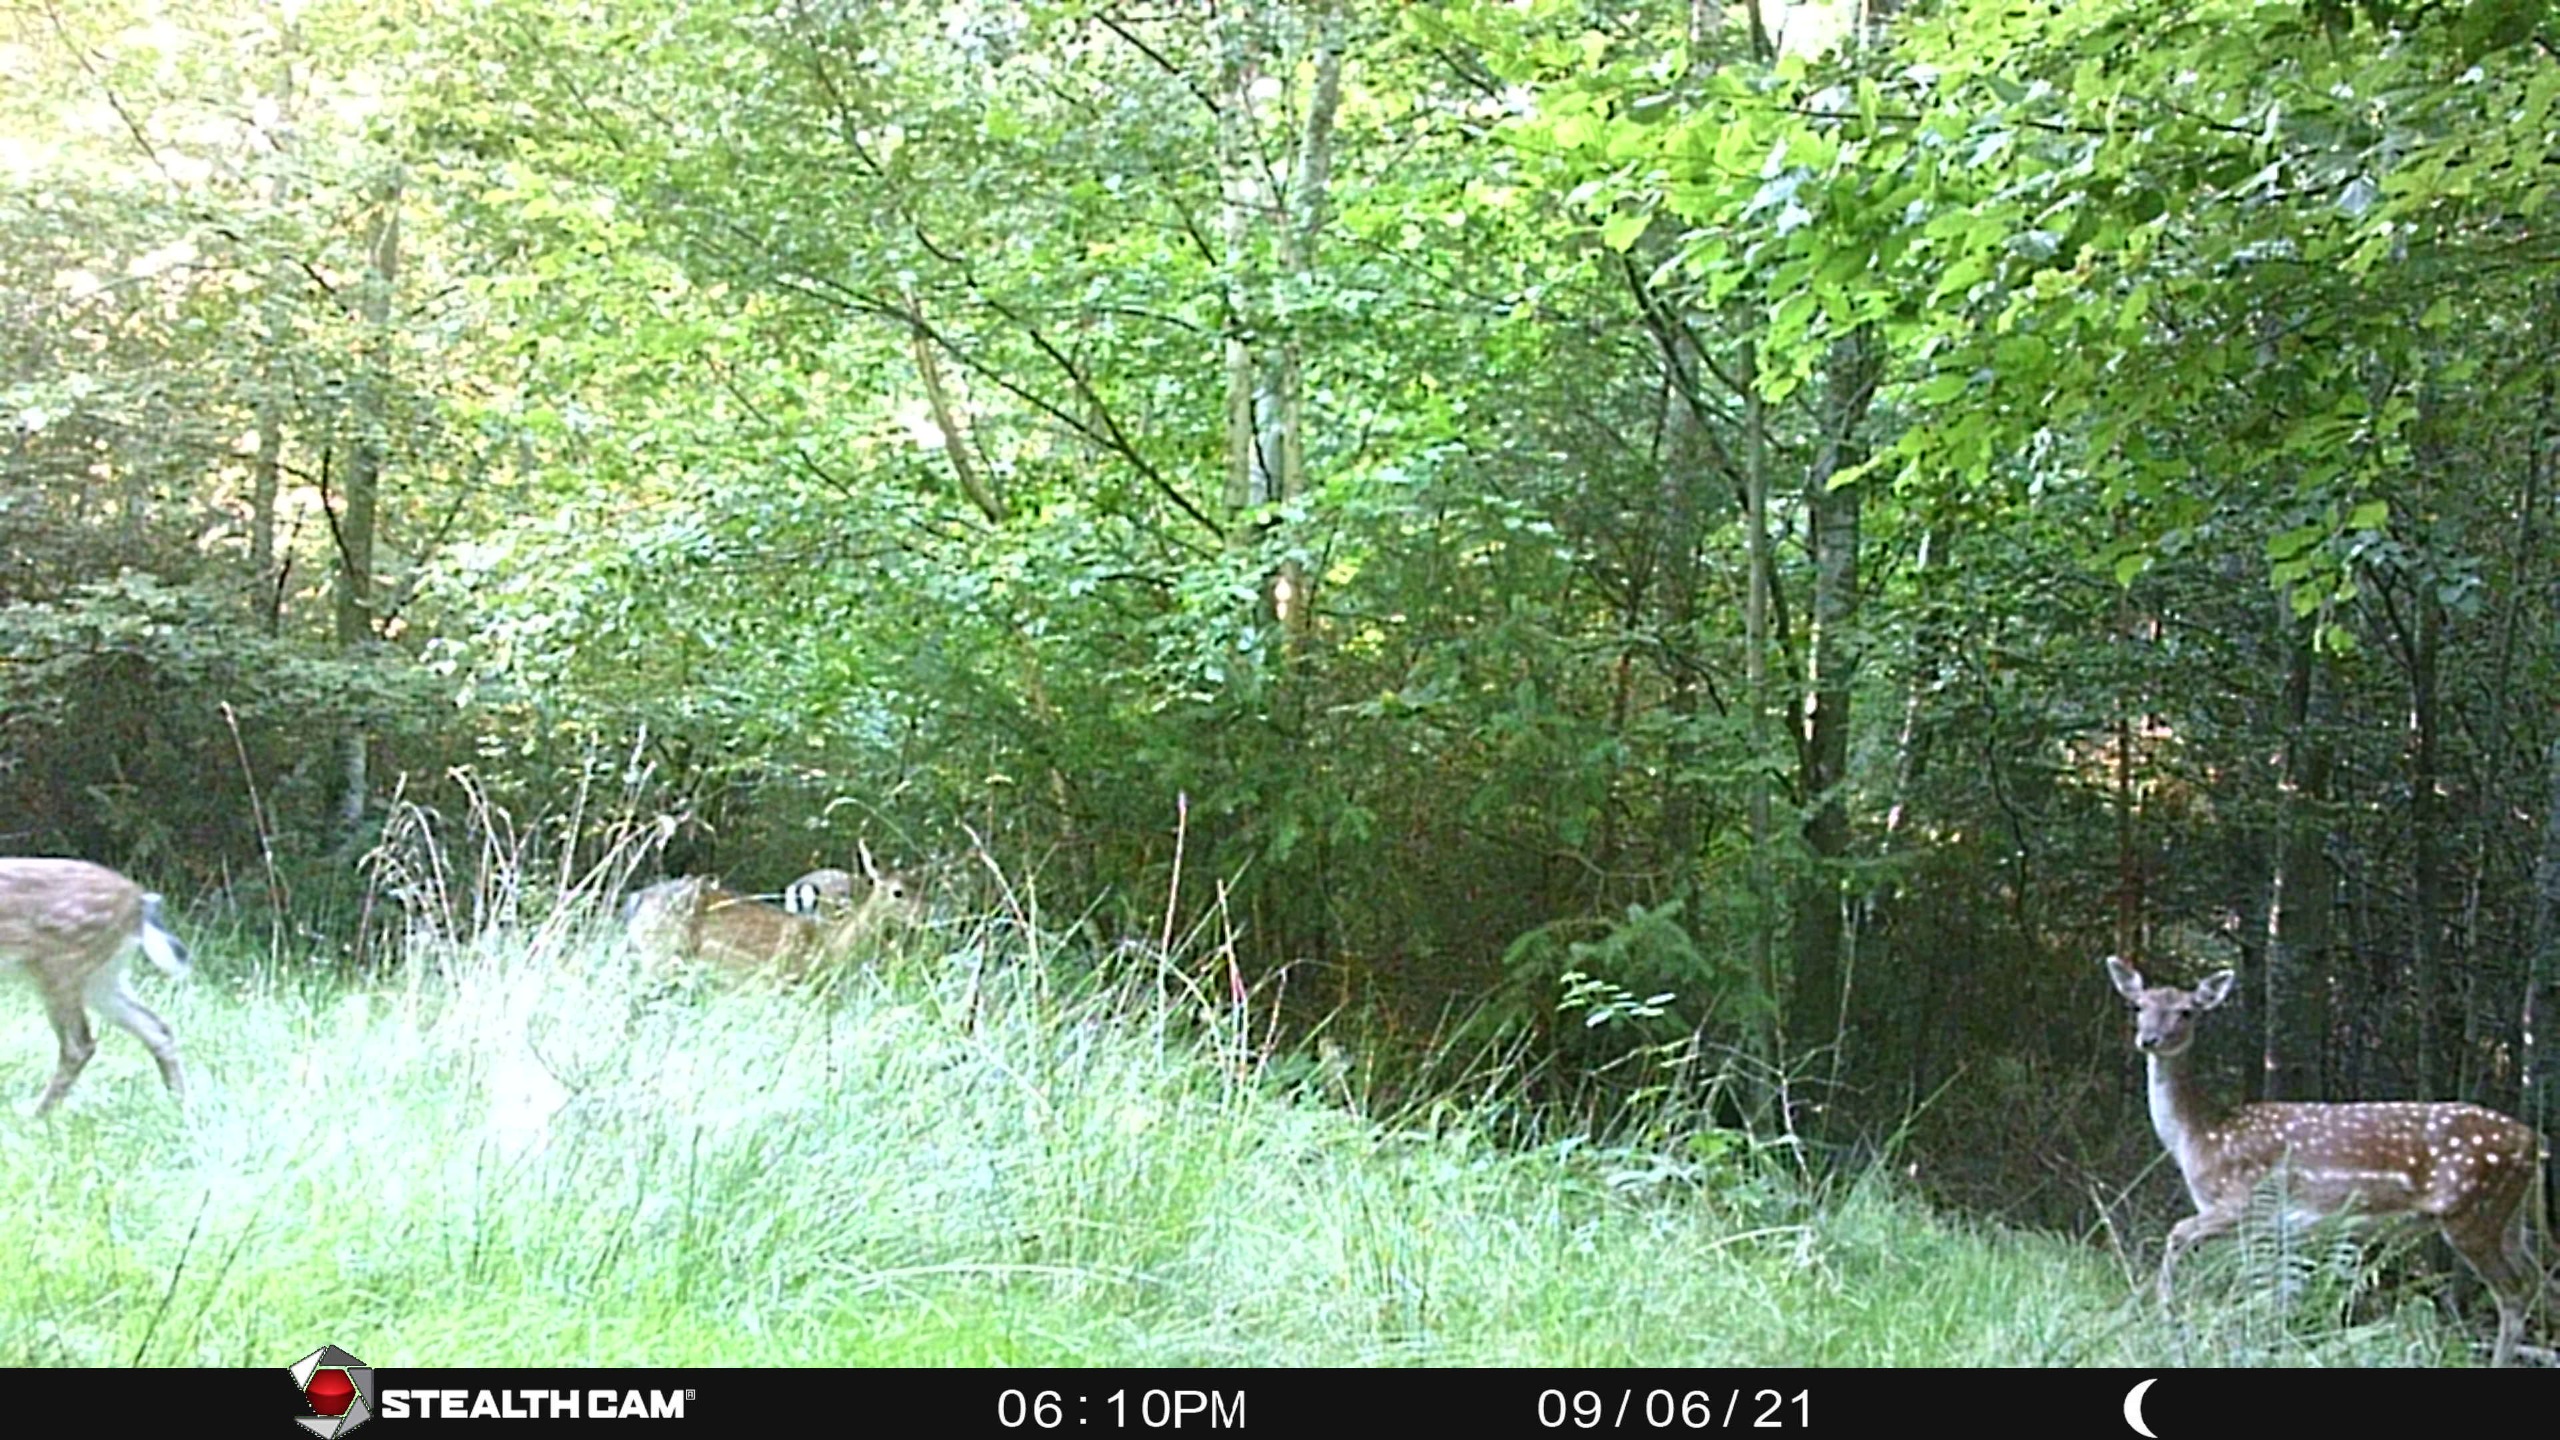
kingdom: Animalia
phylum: Chordata
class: Mammalia
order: Artiodactyla
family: Cervidae
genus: Dama
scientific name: Dama dama
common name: Dådyr
